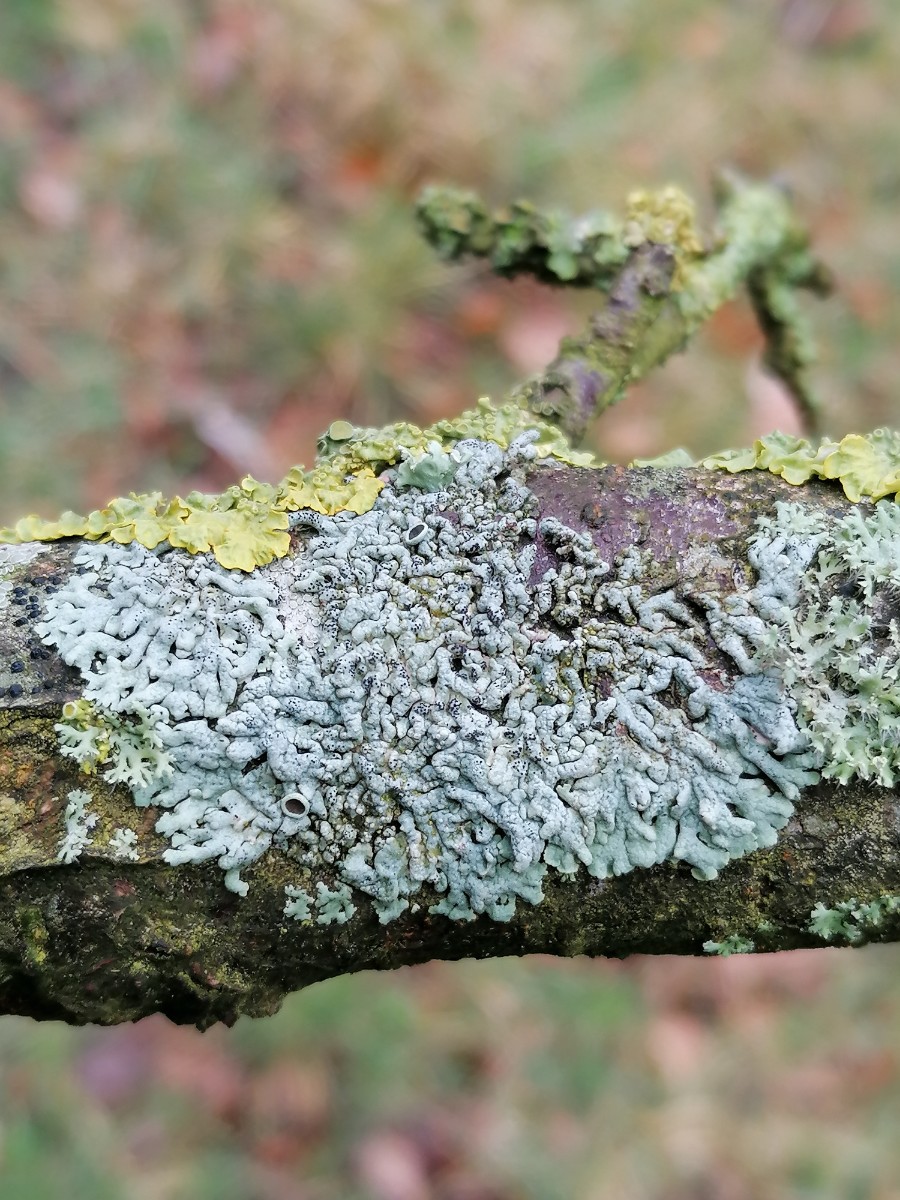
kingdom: Fungi
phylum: Ascomycota
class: Lecanoromycetes
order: Caliciales
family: Physciaceae
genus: Physcia
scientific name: Physcia aipolia
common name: hvidprikket rosetlav
